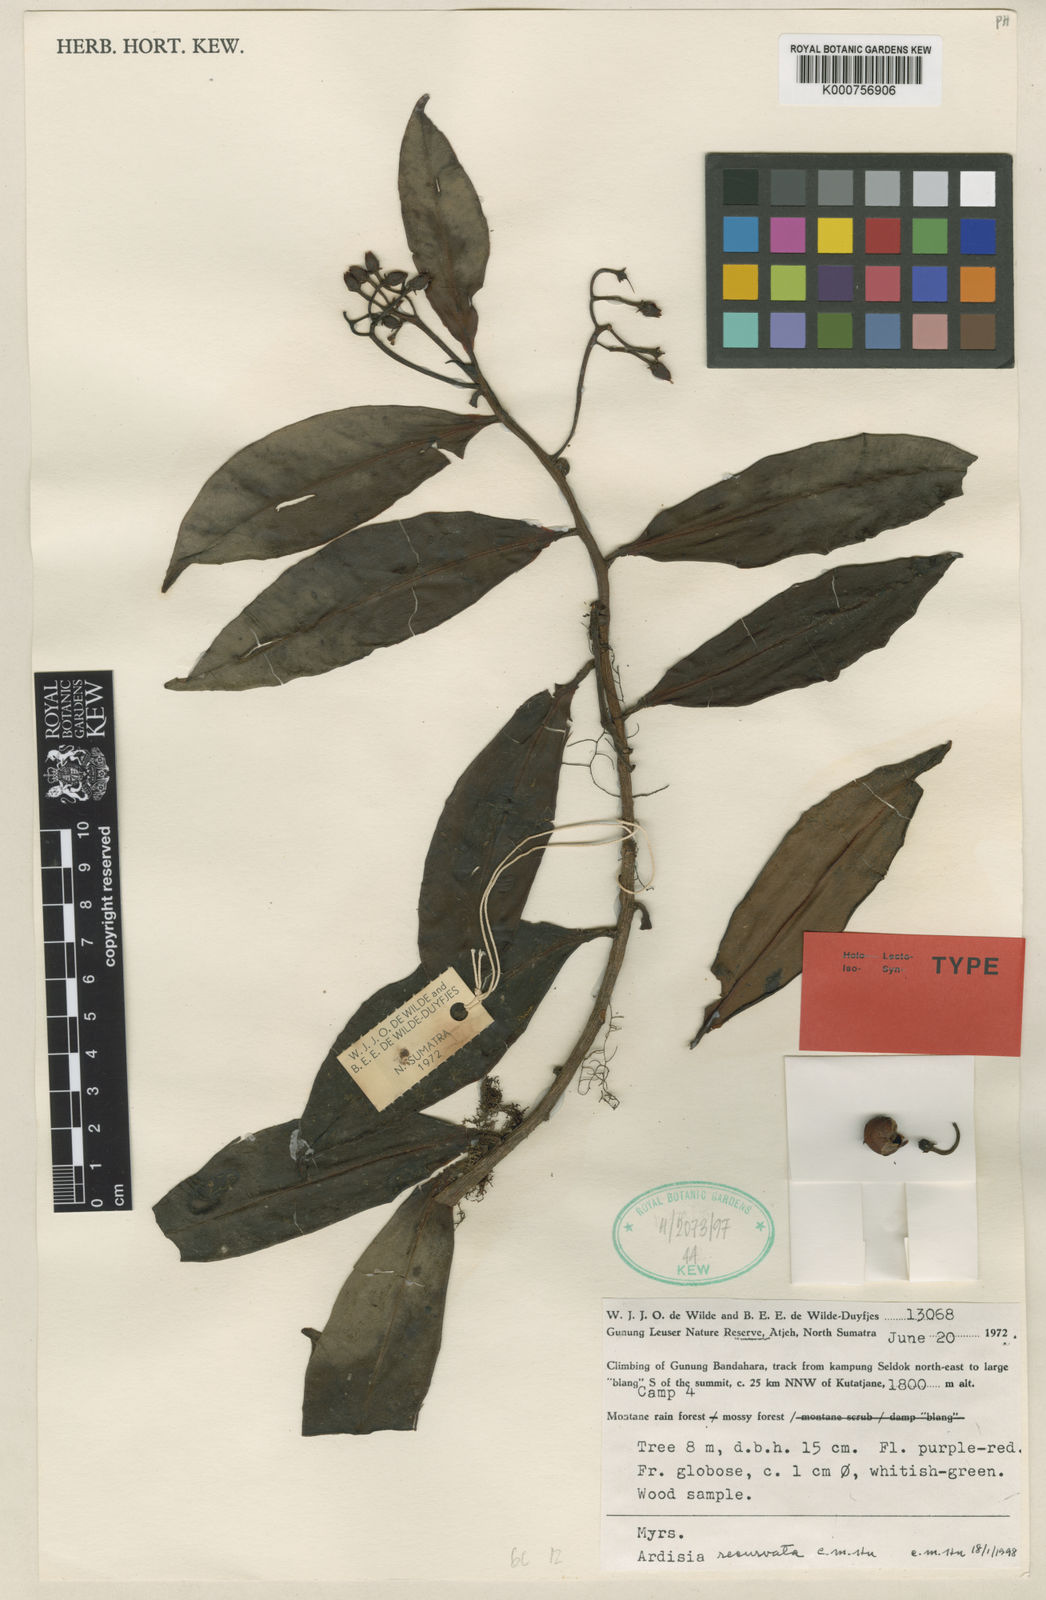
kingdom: Plantae
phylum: Tracheophyta
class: Magnoliopsida
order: Ericales
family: Primulaceae
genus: Ardisia
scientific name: Ardisia recurvata
